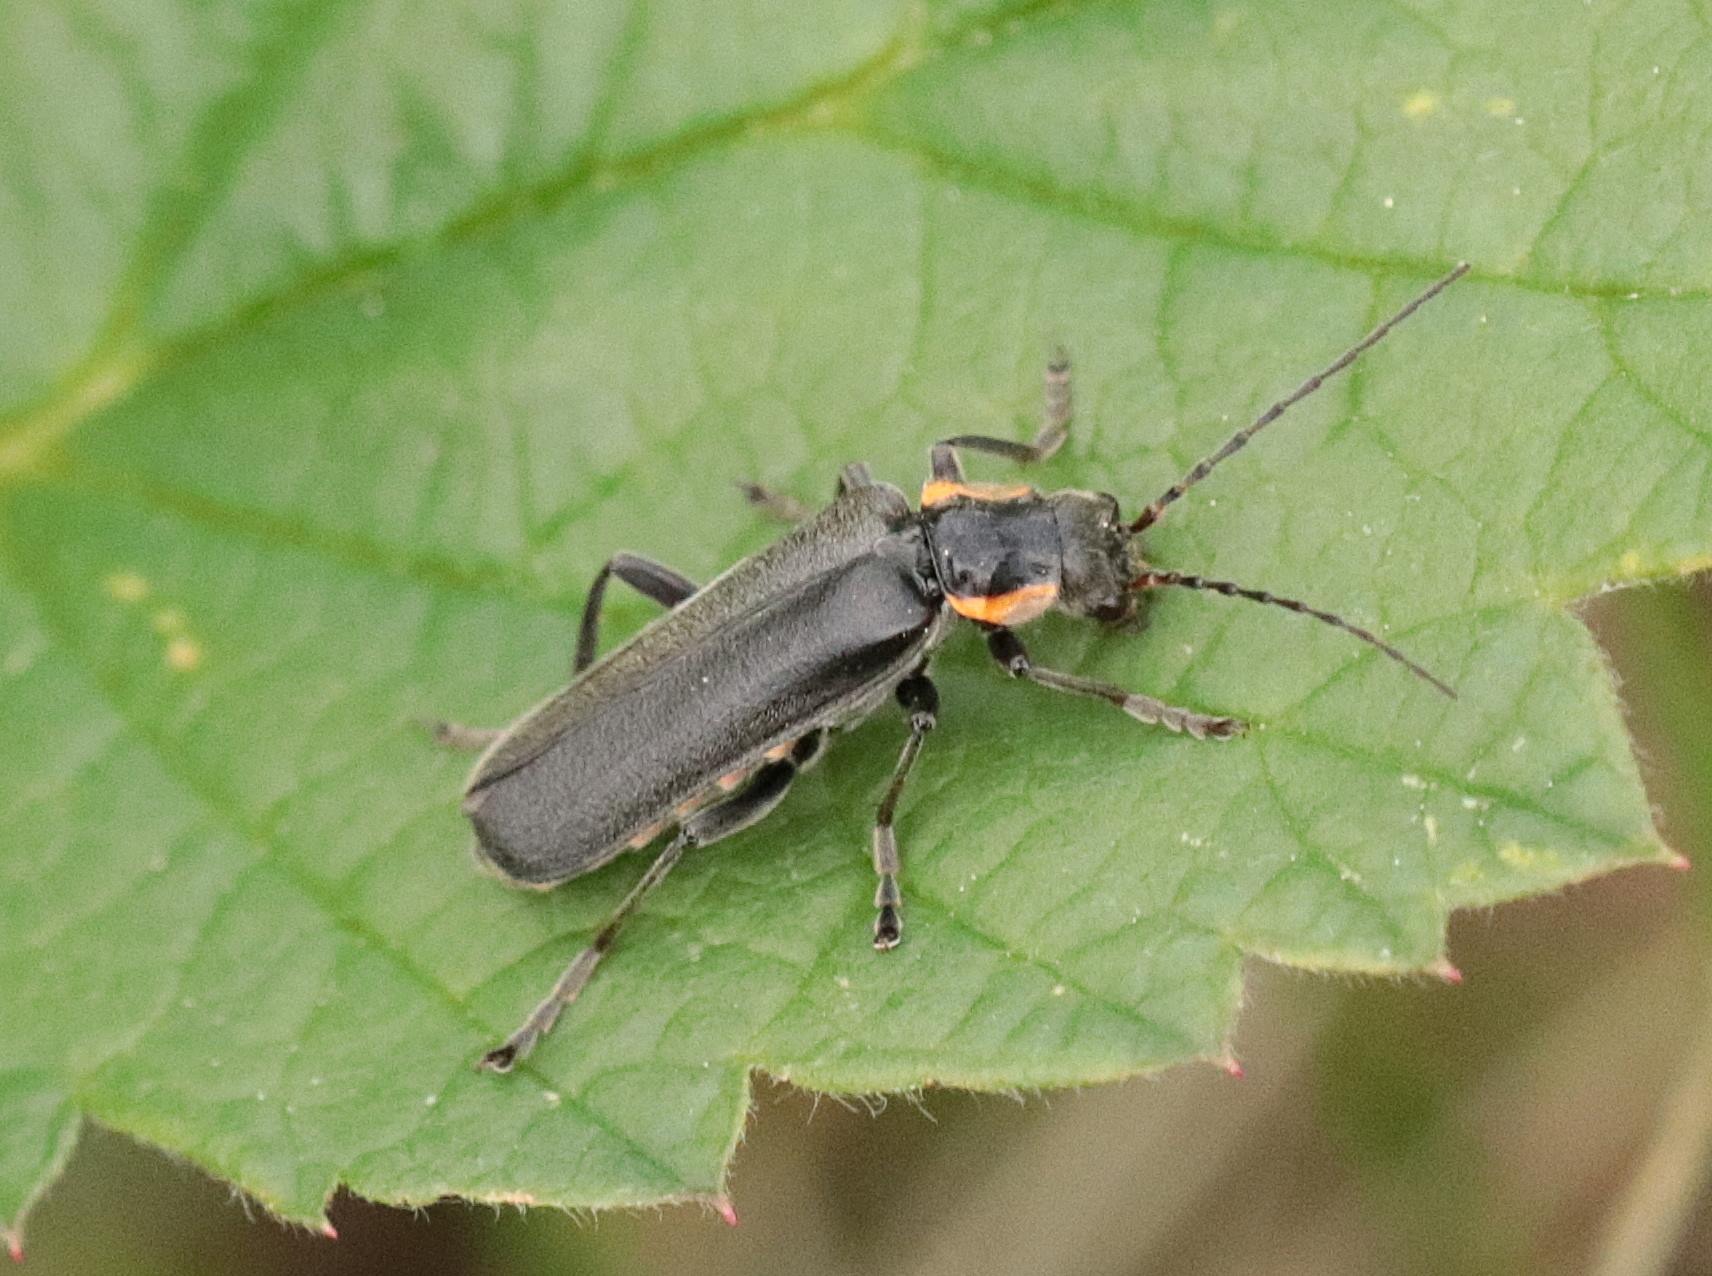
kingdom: Animalia
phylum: Arthropoda
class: Insecta
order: Coleoptera
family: Cantharidae
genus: Cantharis
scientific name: Cantharis obscura
